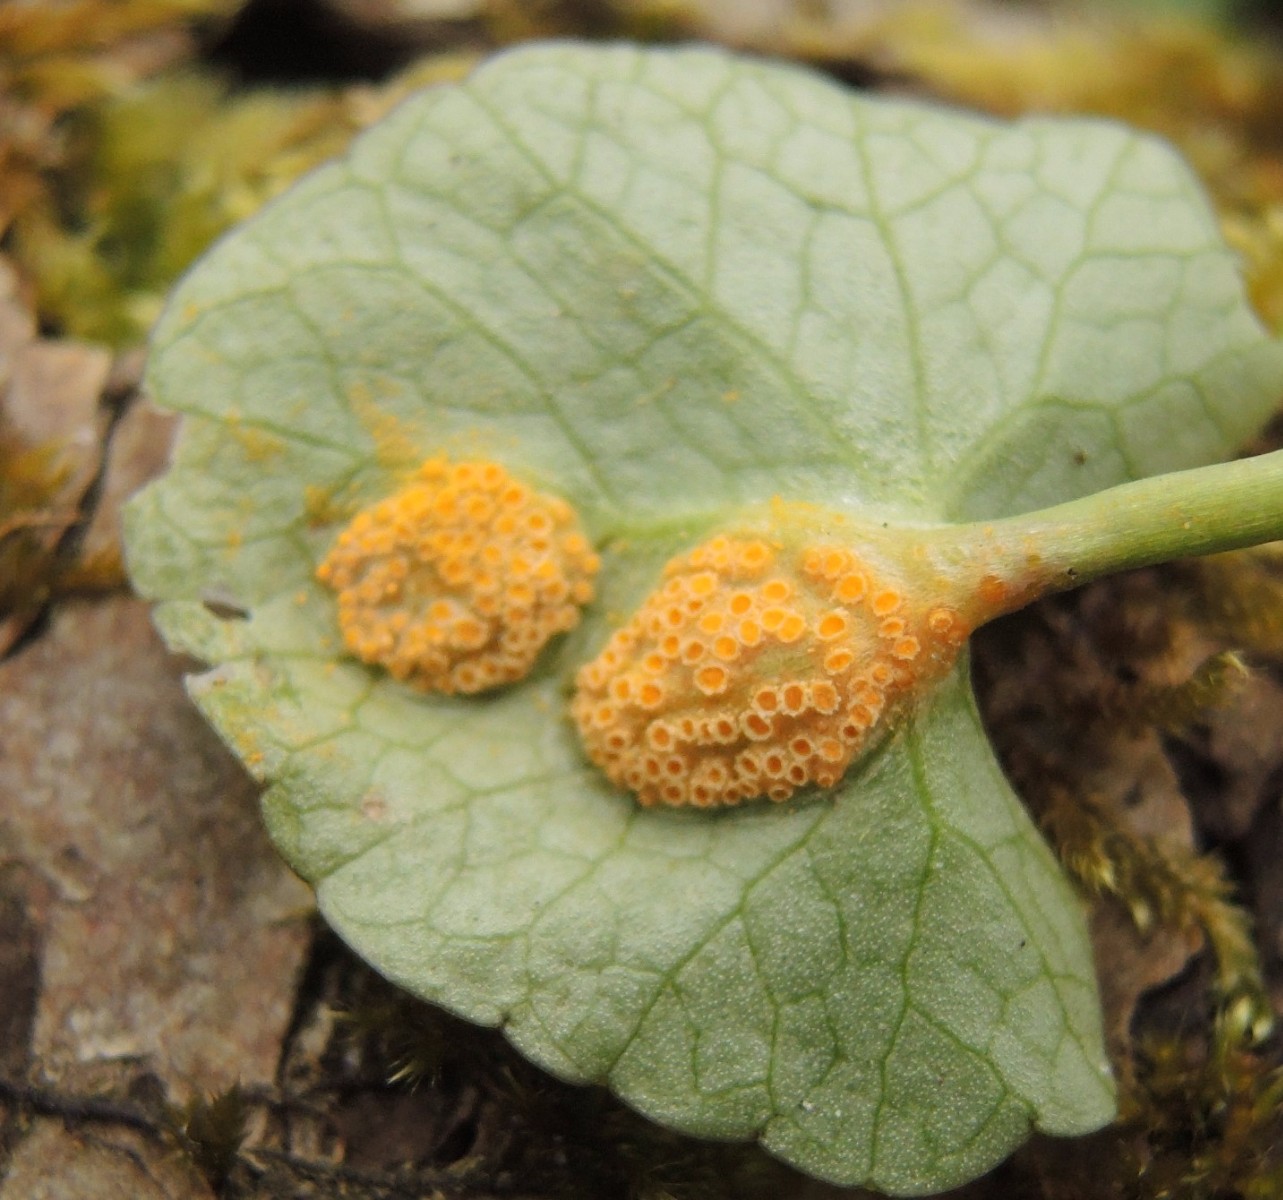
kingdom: Fungi
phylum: Basidiomycota
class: Pucciniomycetes
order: Pucciniales
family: Pucciniaceae
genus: Uromyces
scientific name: Uromyces dactylidis
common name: ranunkel-encellerust
